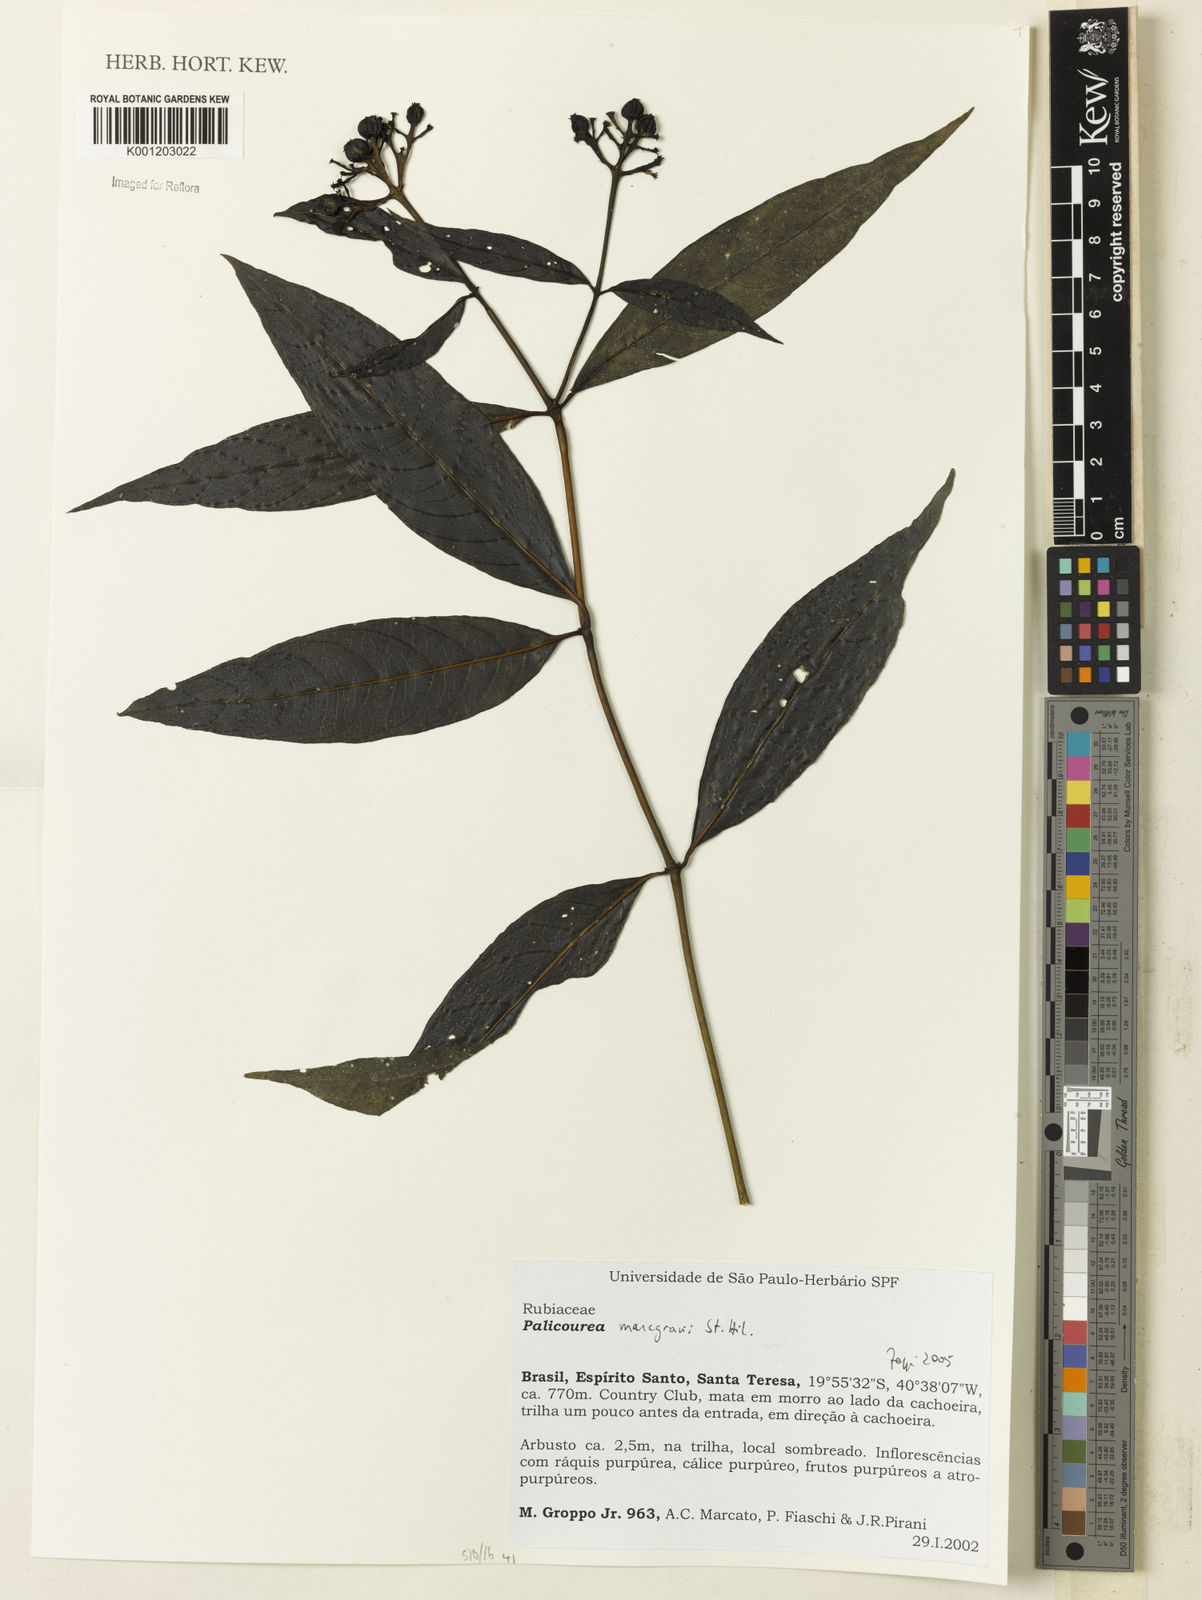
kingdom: Plantae
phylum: Tracheophyta
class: Magnoliopsida
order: Gentianales
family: Rubiaceae
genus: Palicourea
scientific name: Palicourea marcgravii
